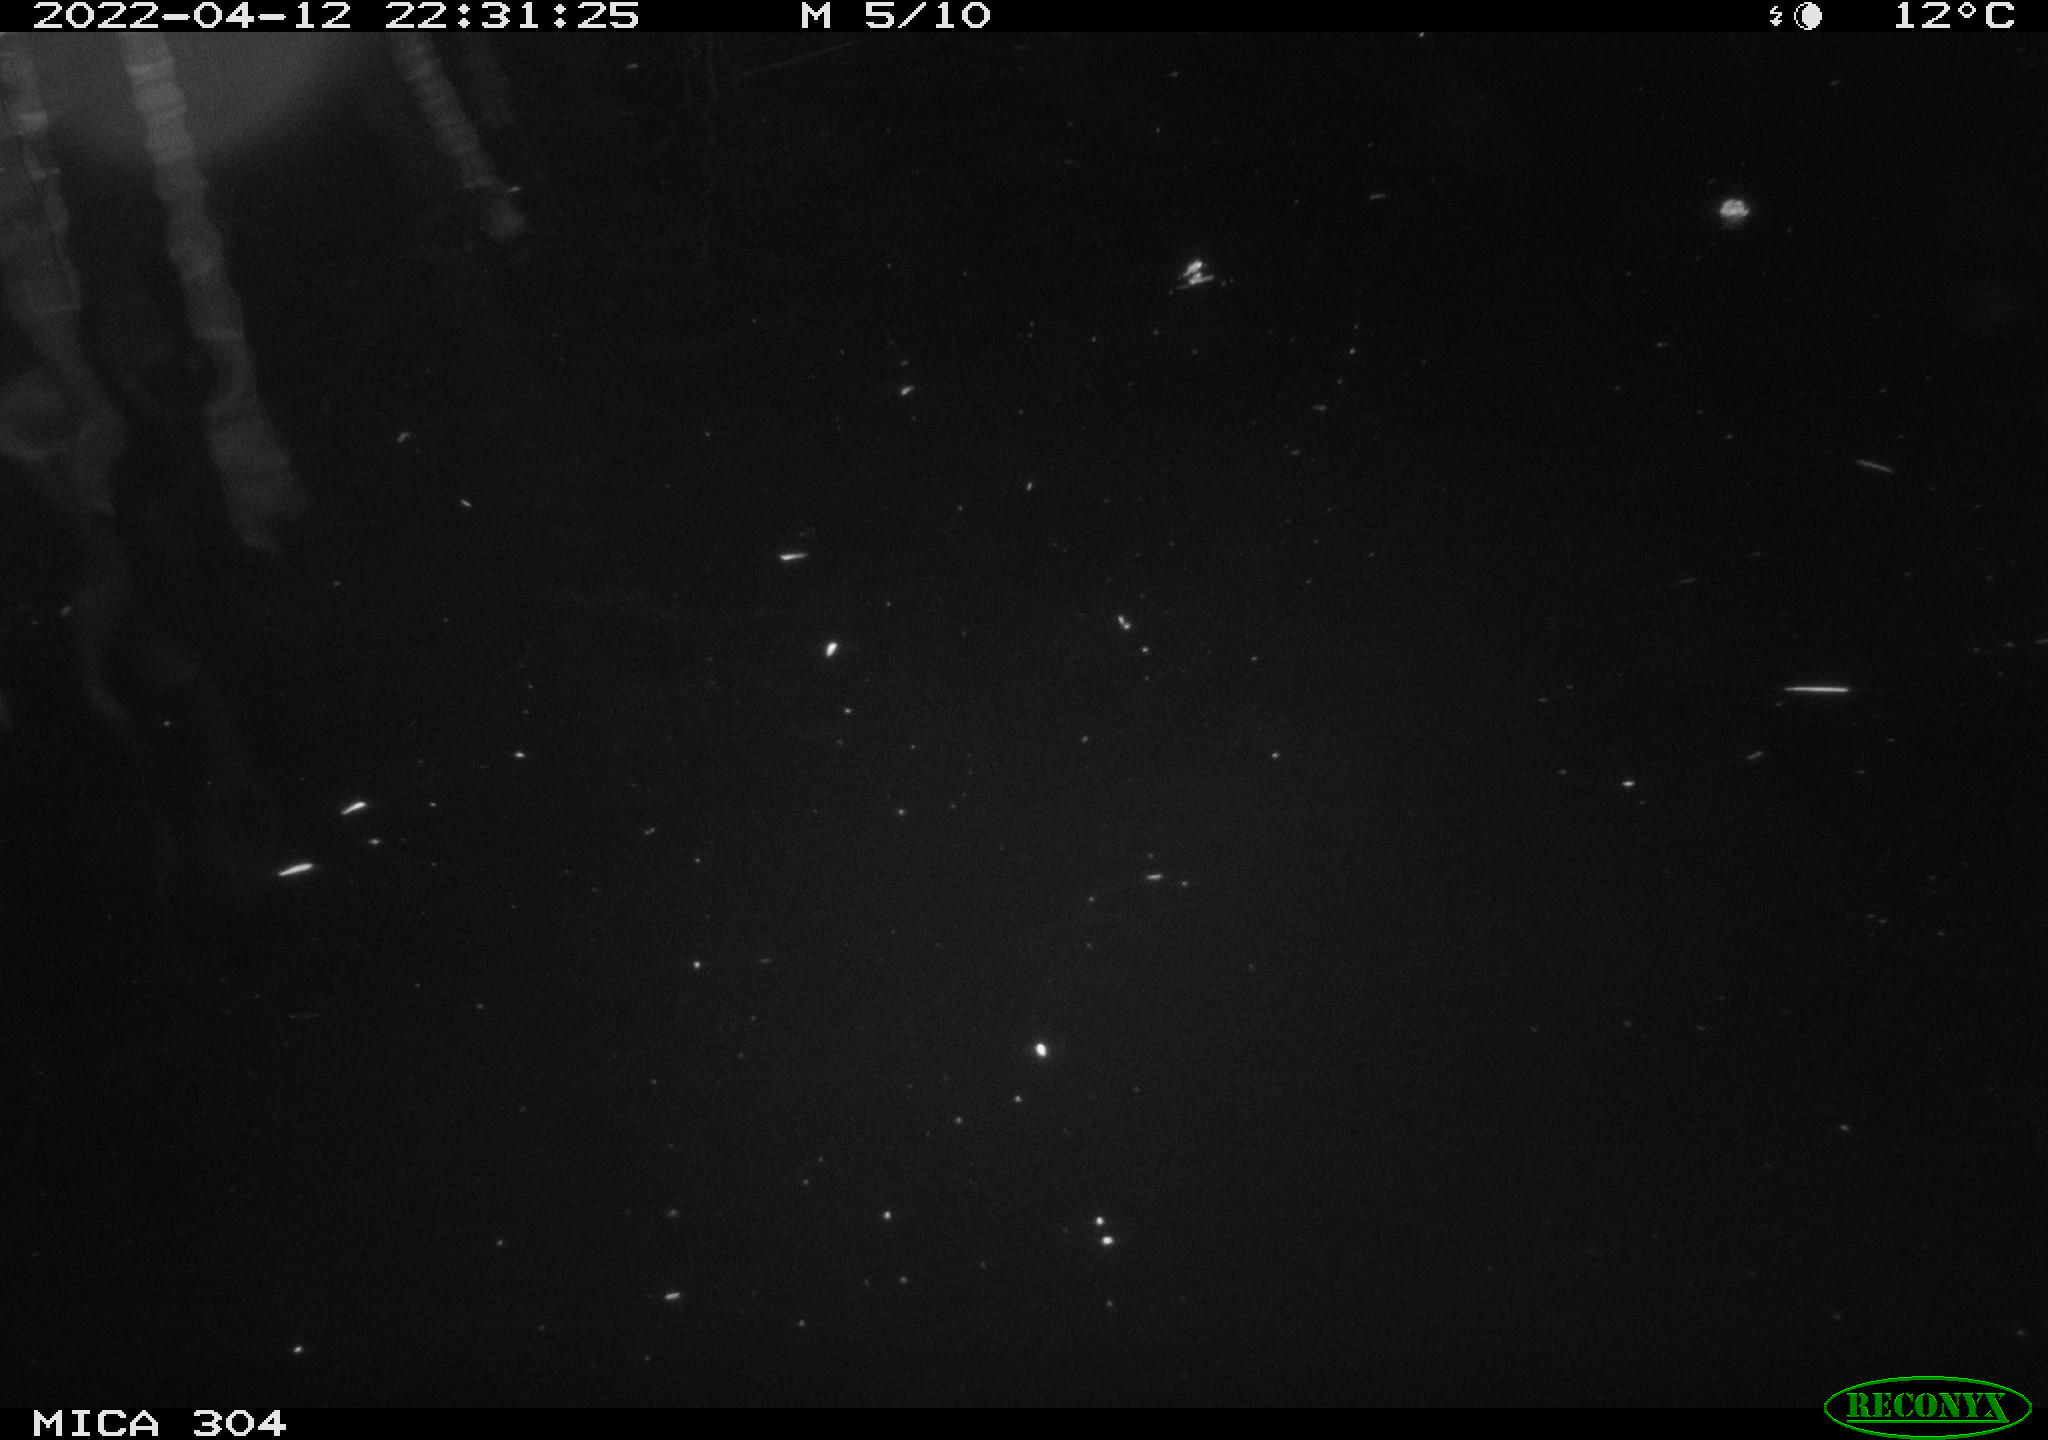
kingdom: Animalia
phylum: Chordata
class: Aves
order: Anseriformes
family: Anatidae
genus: Anas
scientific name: Anas platyrhynchos
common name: Mallard
